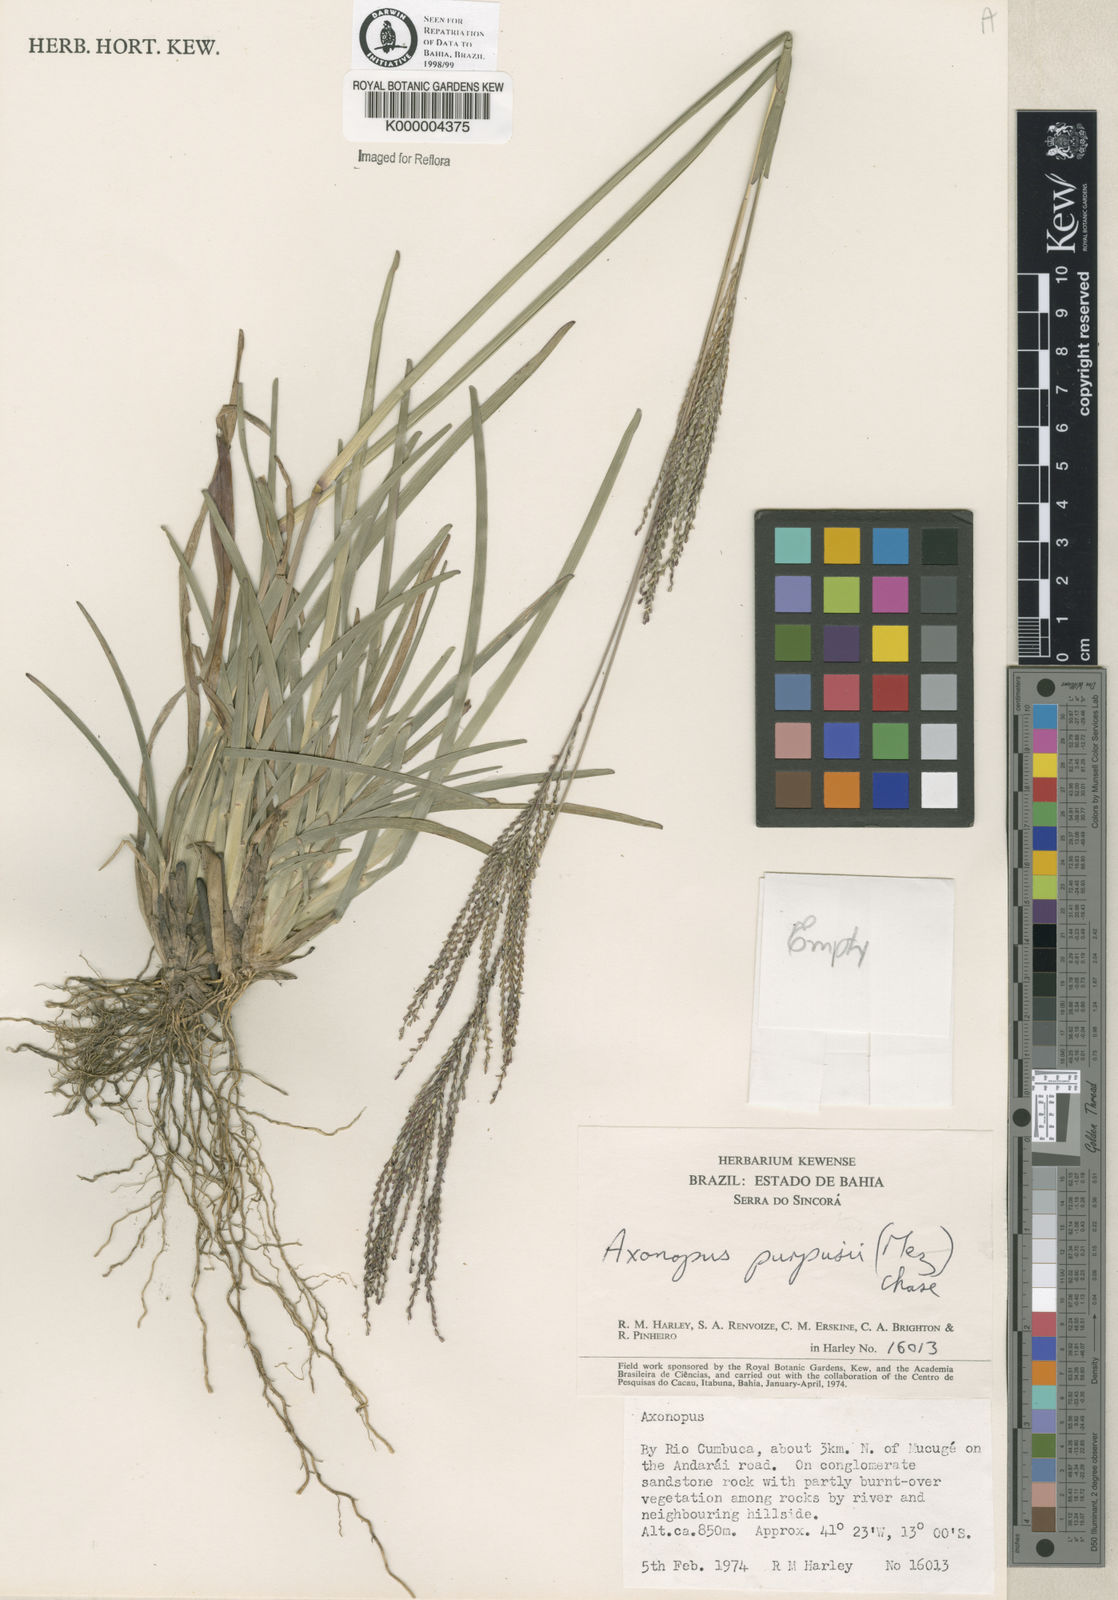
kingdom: Plantae
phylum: Tracheophyta
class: Liliopsida
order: Poales
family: Poaceae
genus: Axonopus
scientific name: Axonopus
